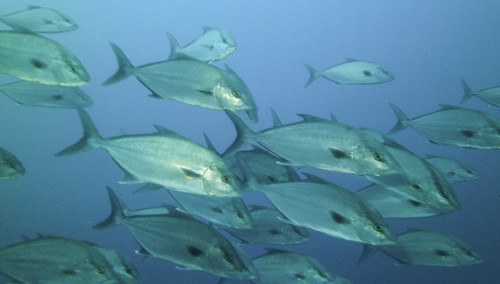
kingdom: Animalia
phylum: Chordata
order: Perciformes
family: Carangidae
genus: Seriola
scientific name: Seriola rivoliana
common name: Almaco jack
